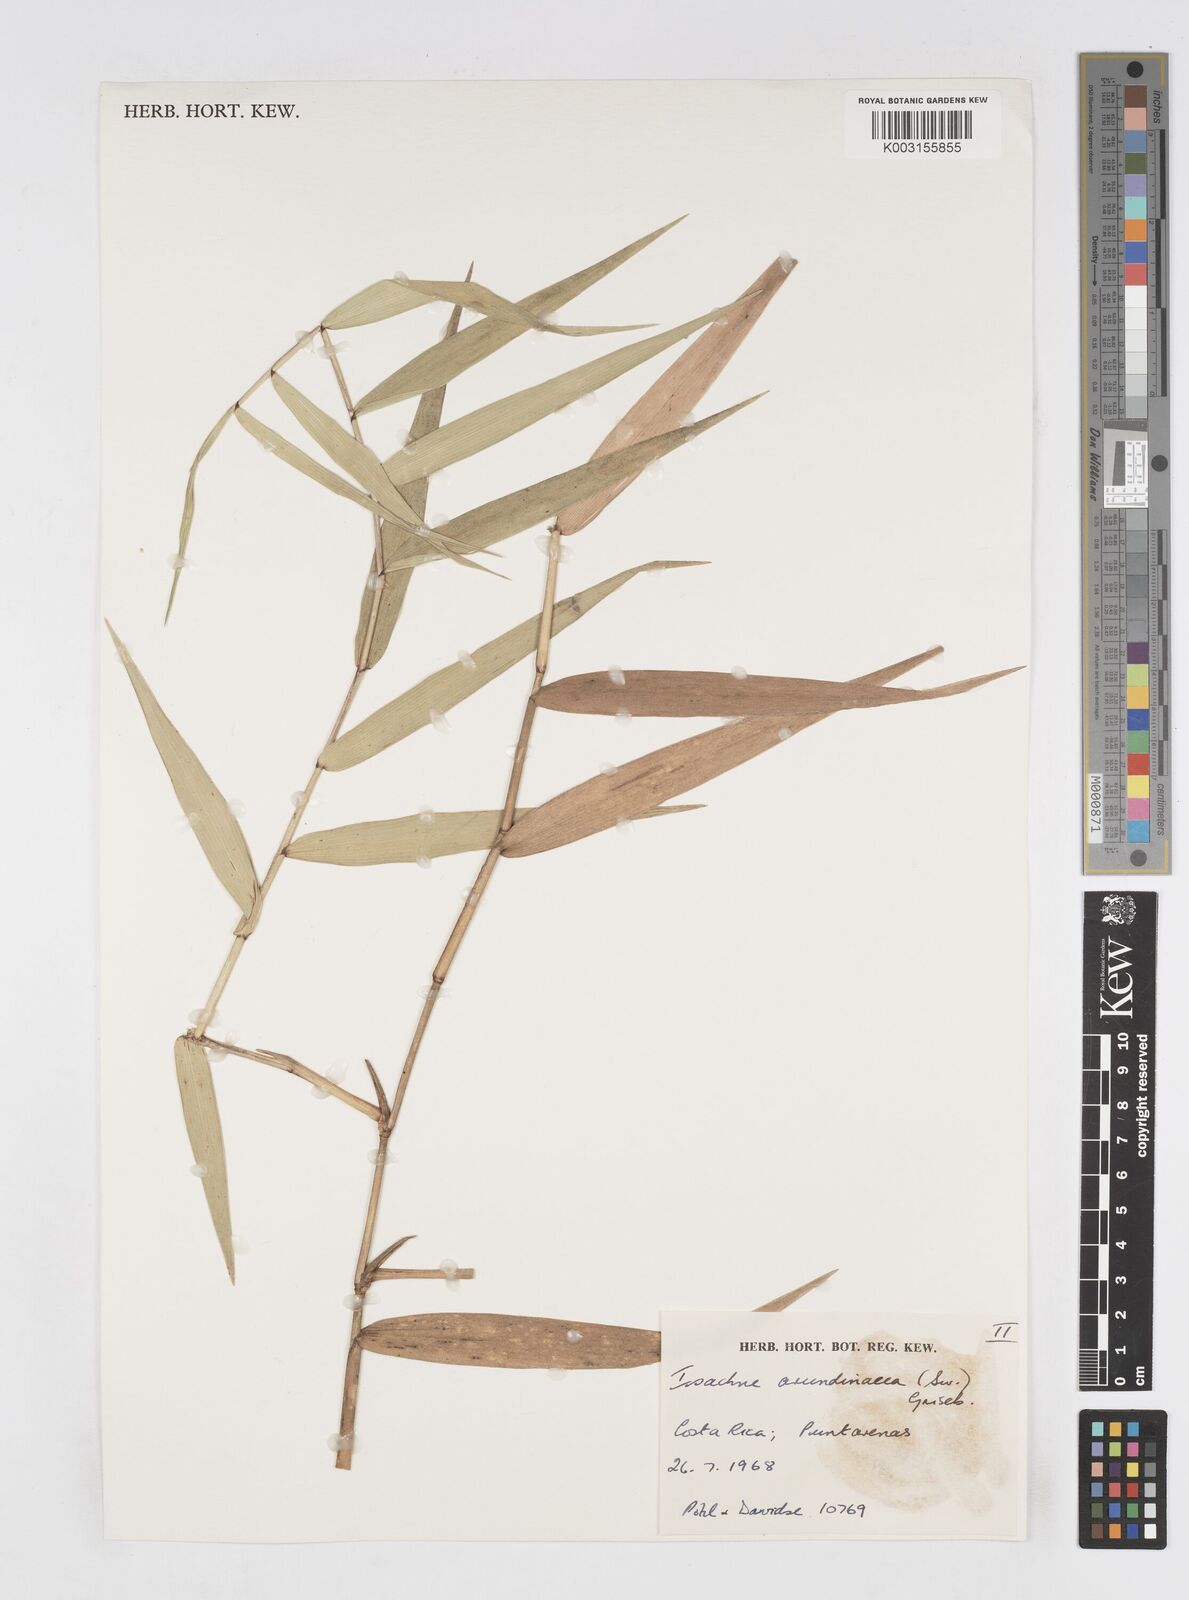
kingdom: Plantae
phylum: Tracheophyta
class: Liliopsida
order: Poales
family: Poaceae
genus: Isachne
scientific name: Isachne arundinacea
